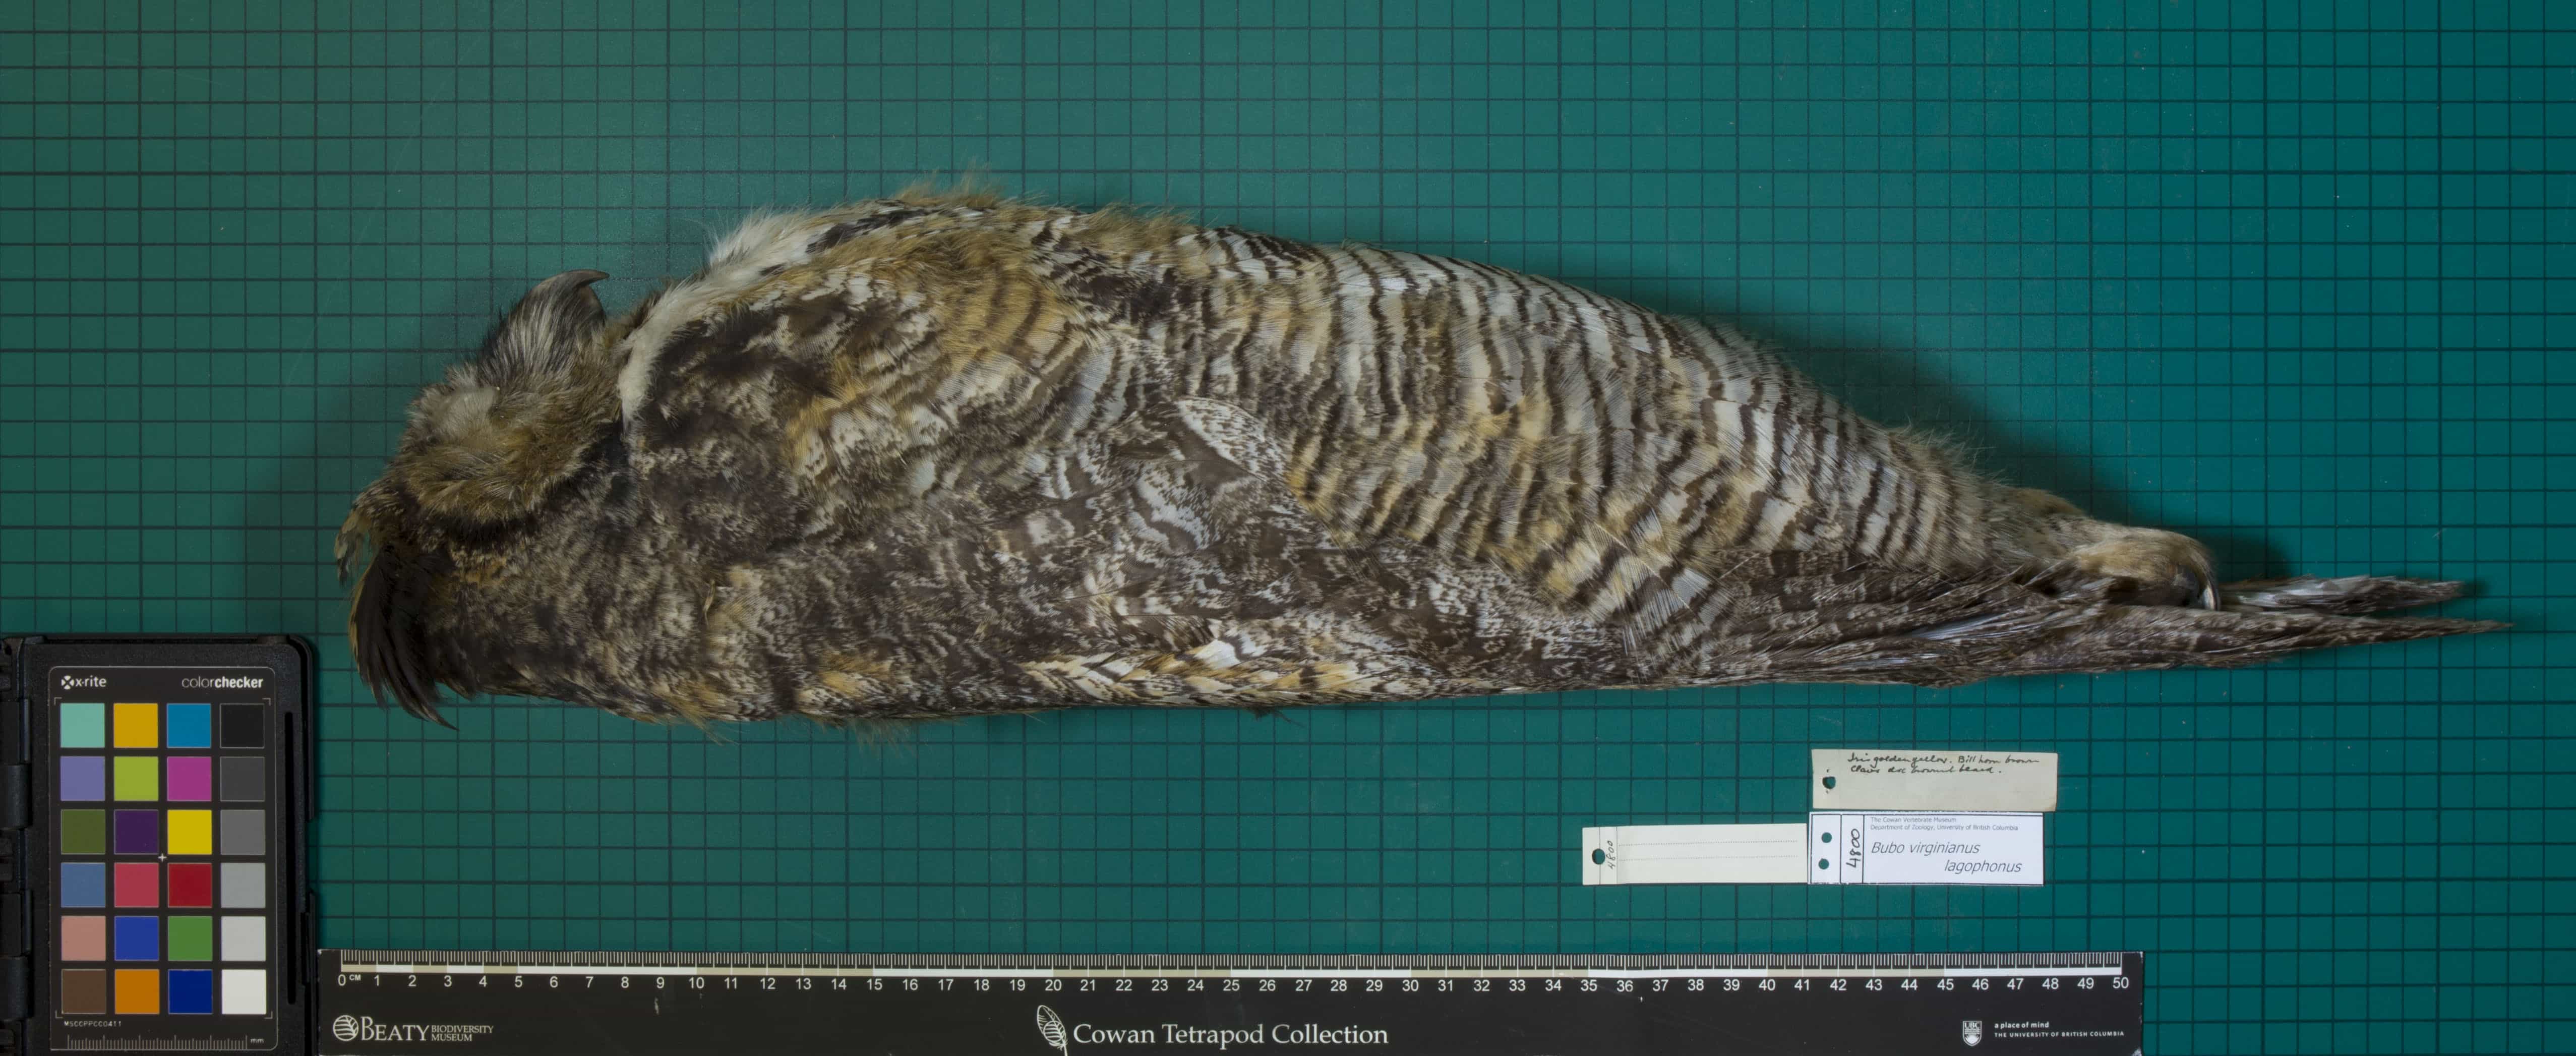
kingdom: Animalia
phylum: Chordata
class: Aves
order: Strigiformes
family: Strigidae
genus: Bubo
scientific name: Bubo virginianus
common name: Great Horned Owl
